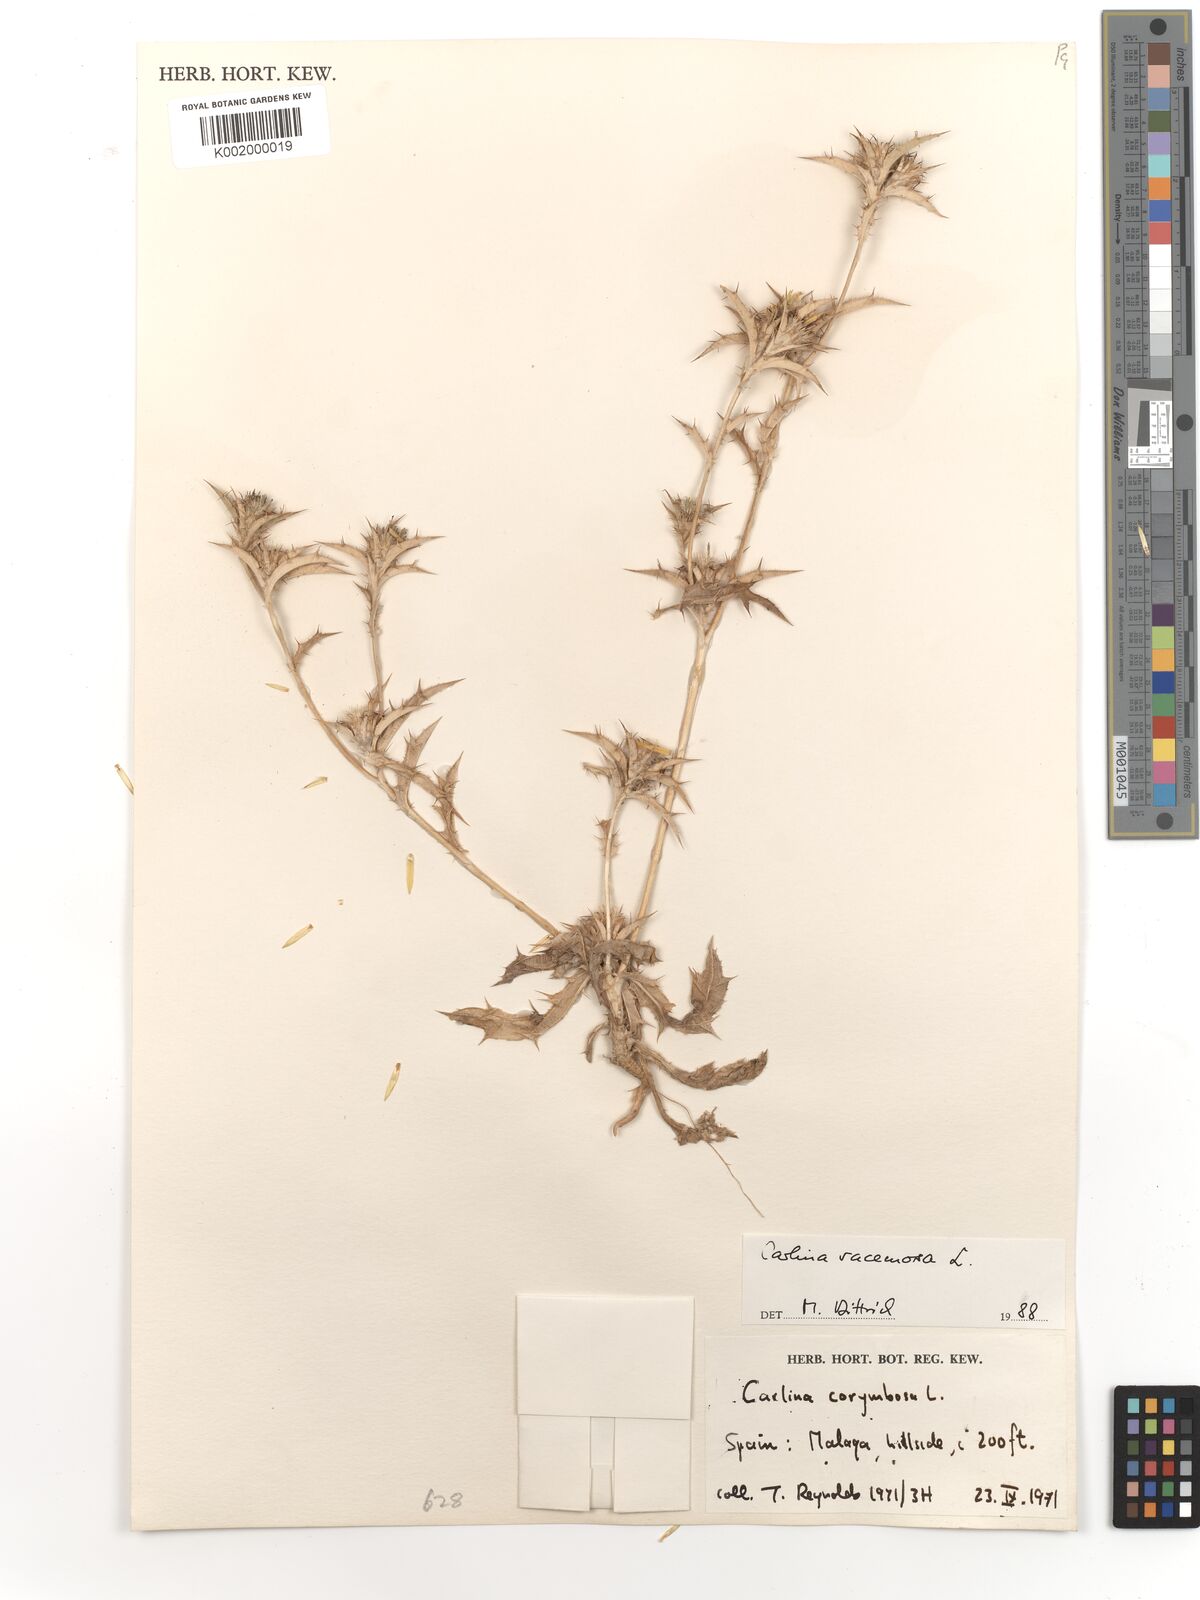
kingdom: Plantae
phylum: Tracheophyta
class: Magnoliopsida
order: Asterales
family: Asteraceae
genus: Carlina
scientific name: Carlina corymbosa
